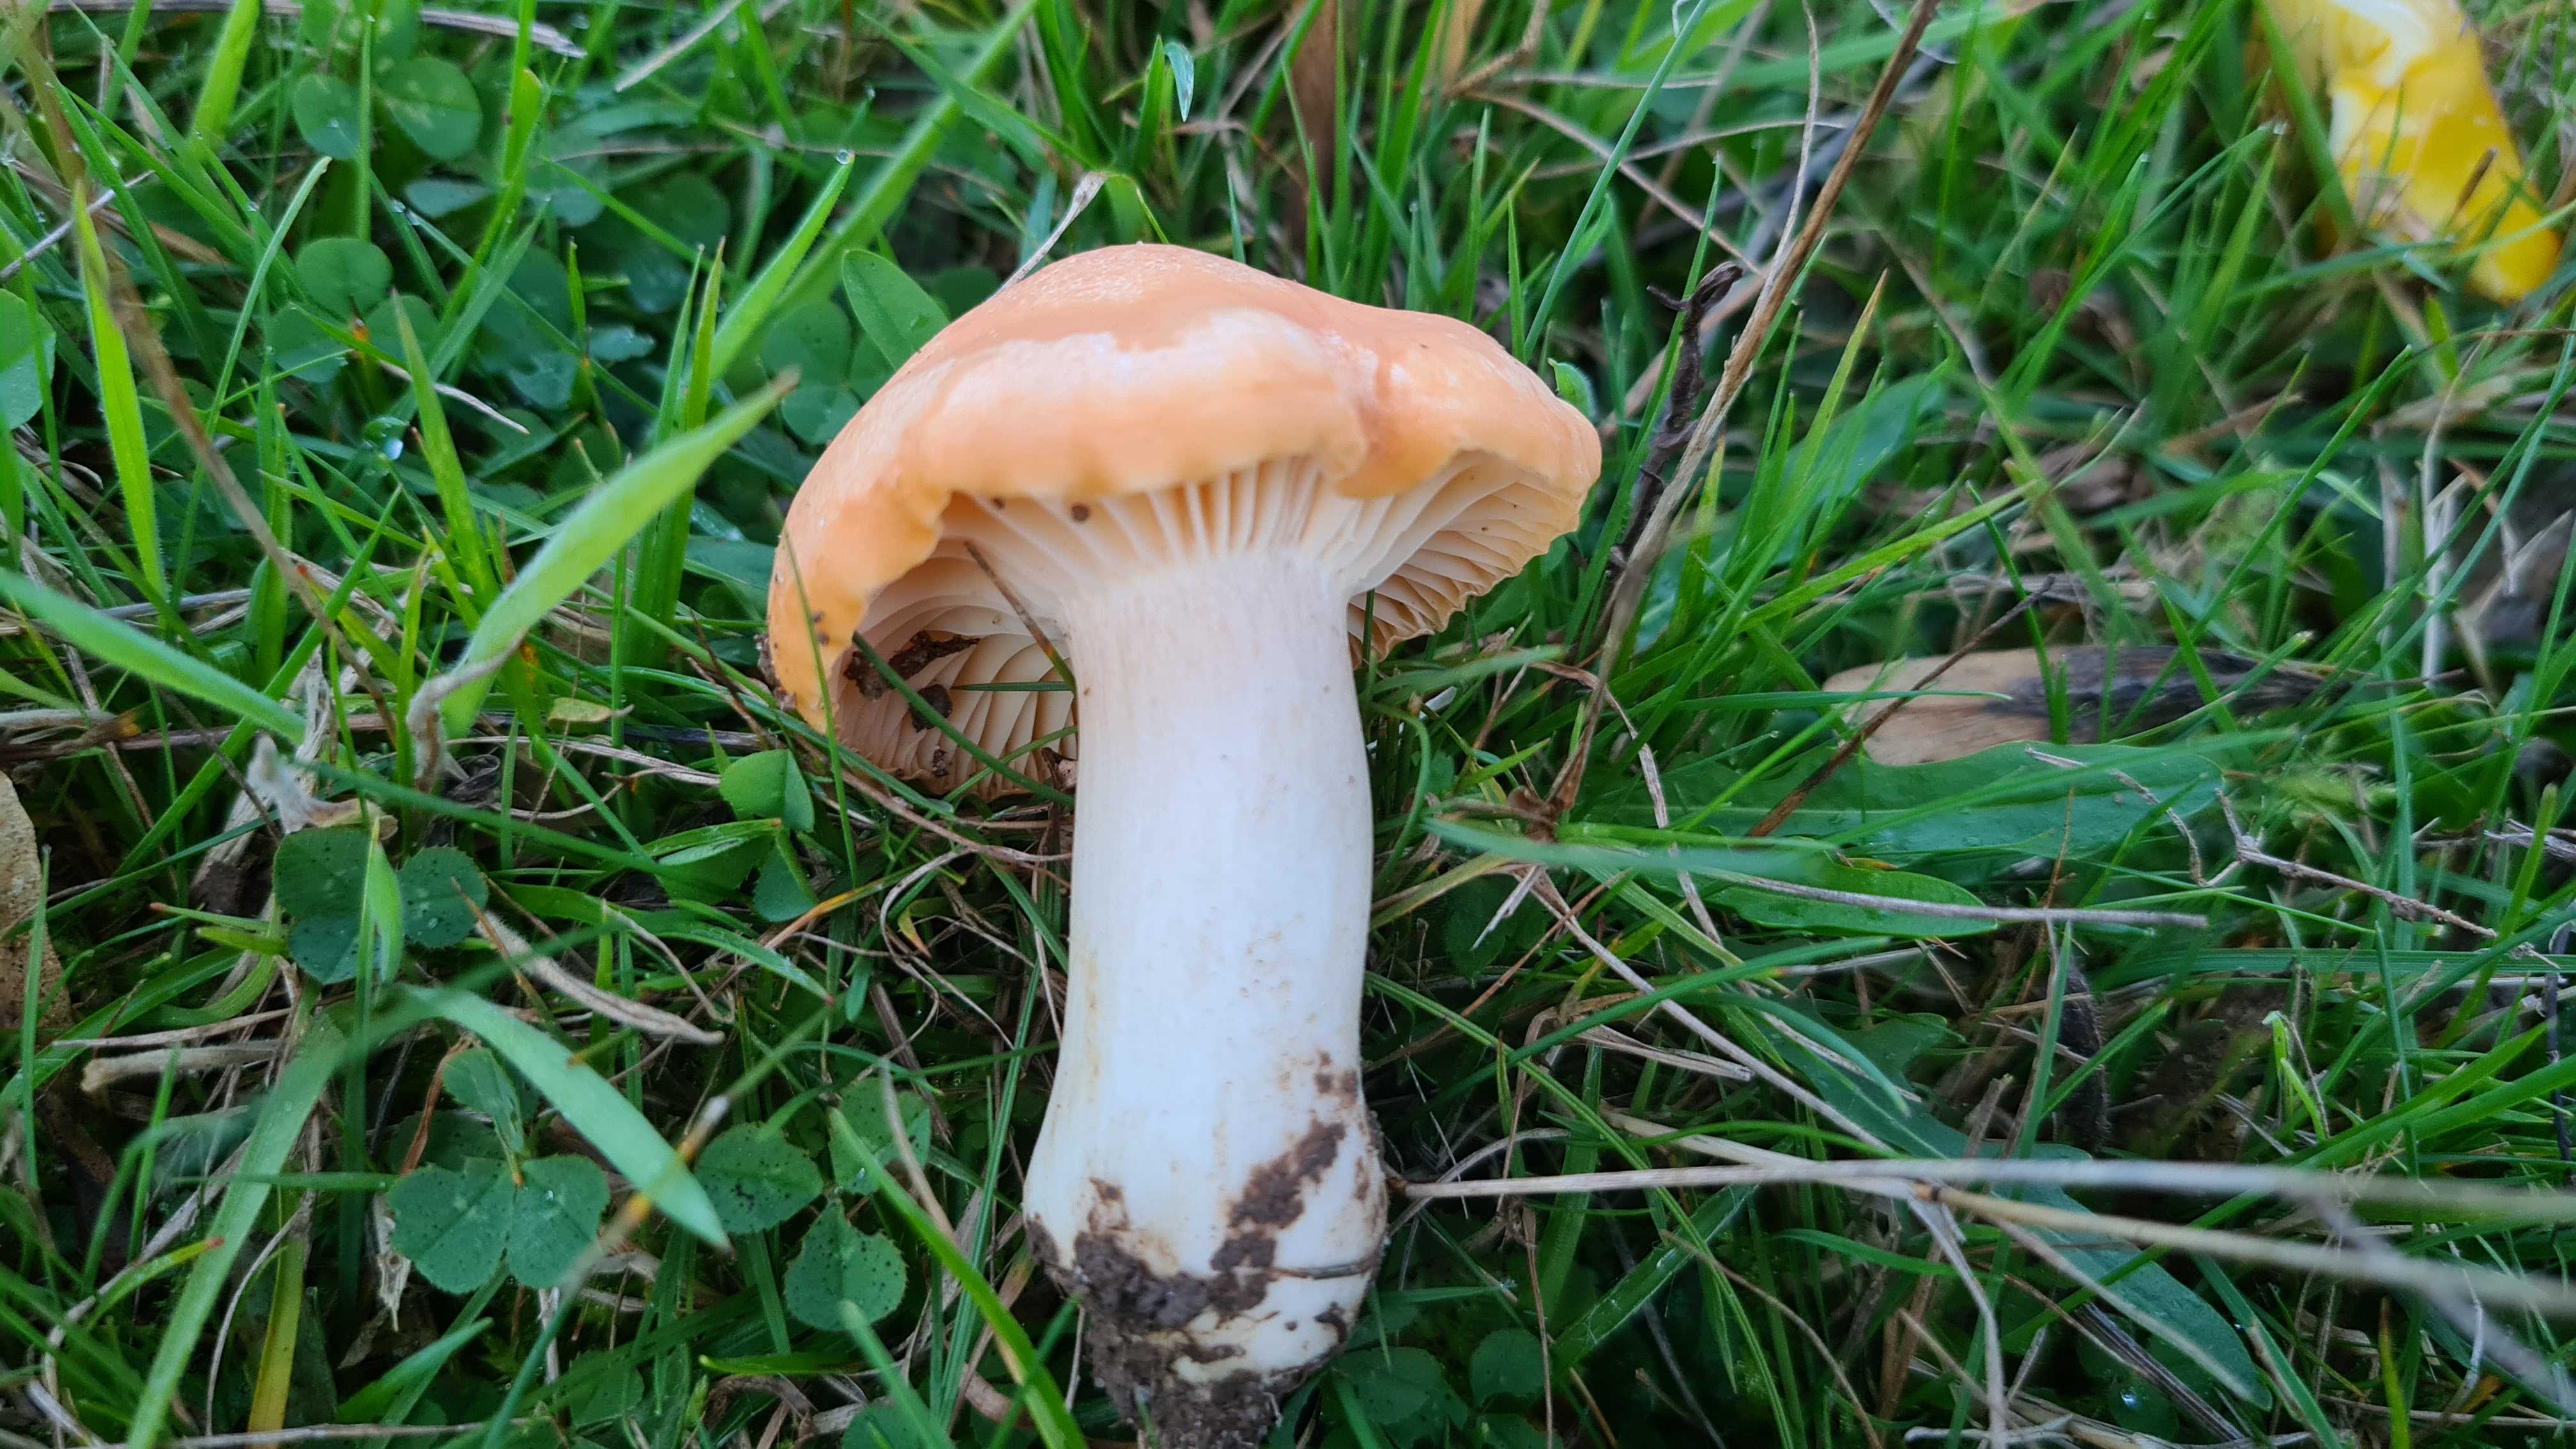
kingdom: Fungi
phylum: Basidiomycota
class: Agaricomycetes
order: Agaricales
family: Hygrophoraceae
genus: Cuphophyllus
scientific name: Cuphophyllus pratensis
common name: eng-vokshat
